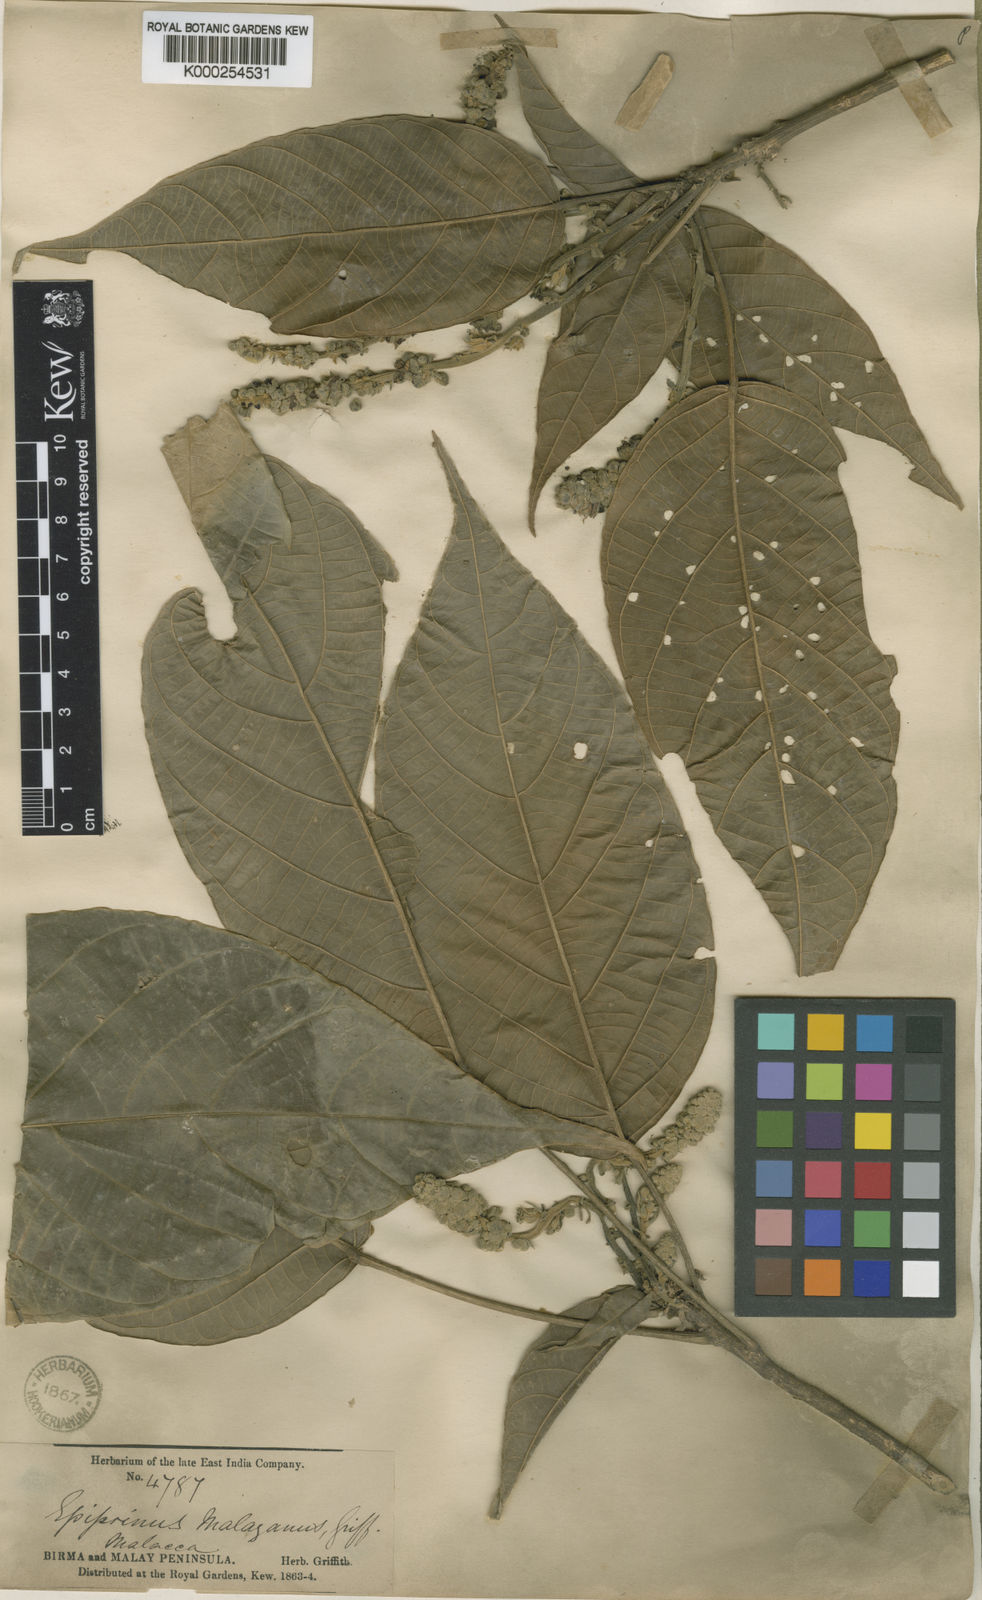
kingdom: Plantae
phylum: Tracheophyta
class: Magnoliopsida
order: Malpighiales
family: Euphorbiaceae
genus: Epiprinus
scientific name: Epiprinus malayanus
